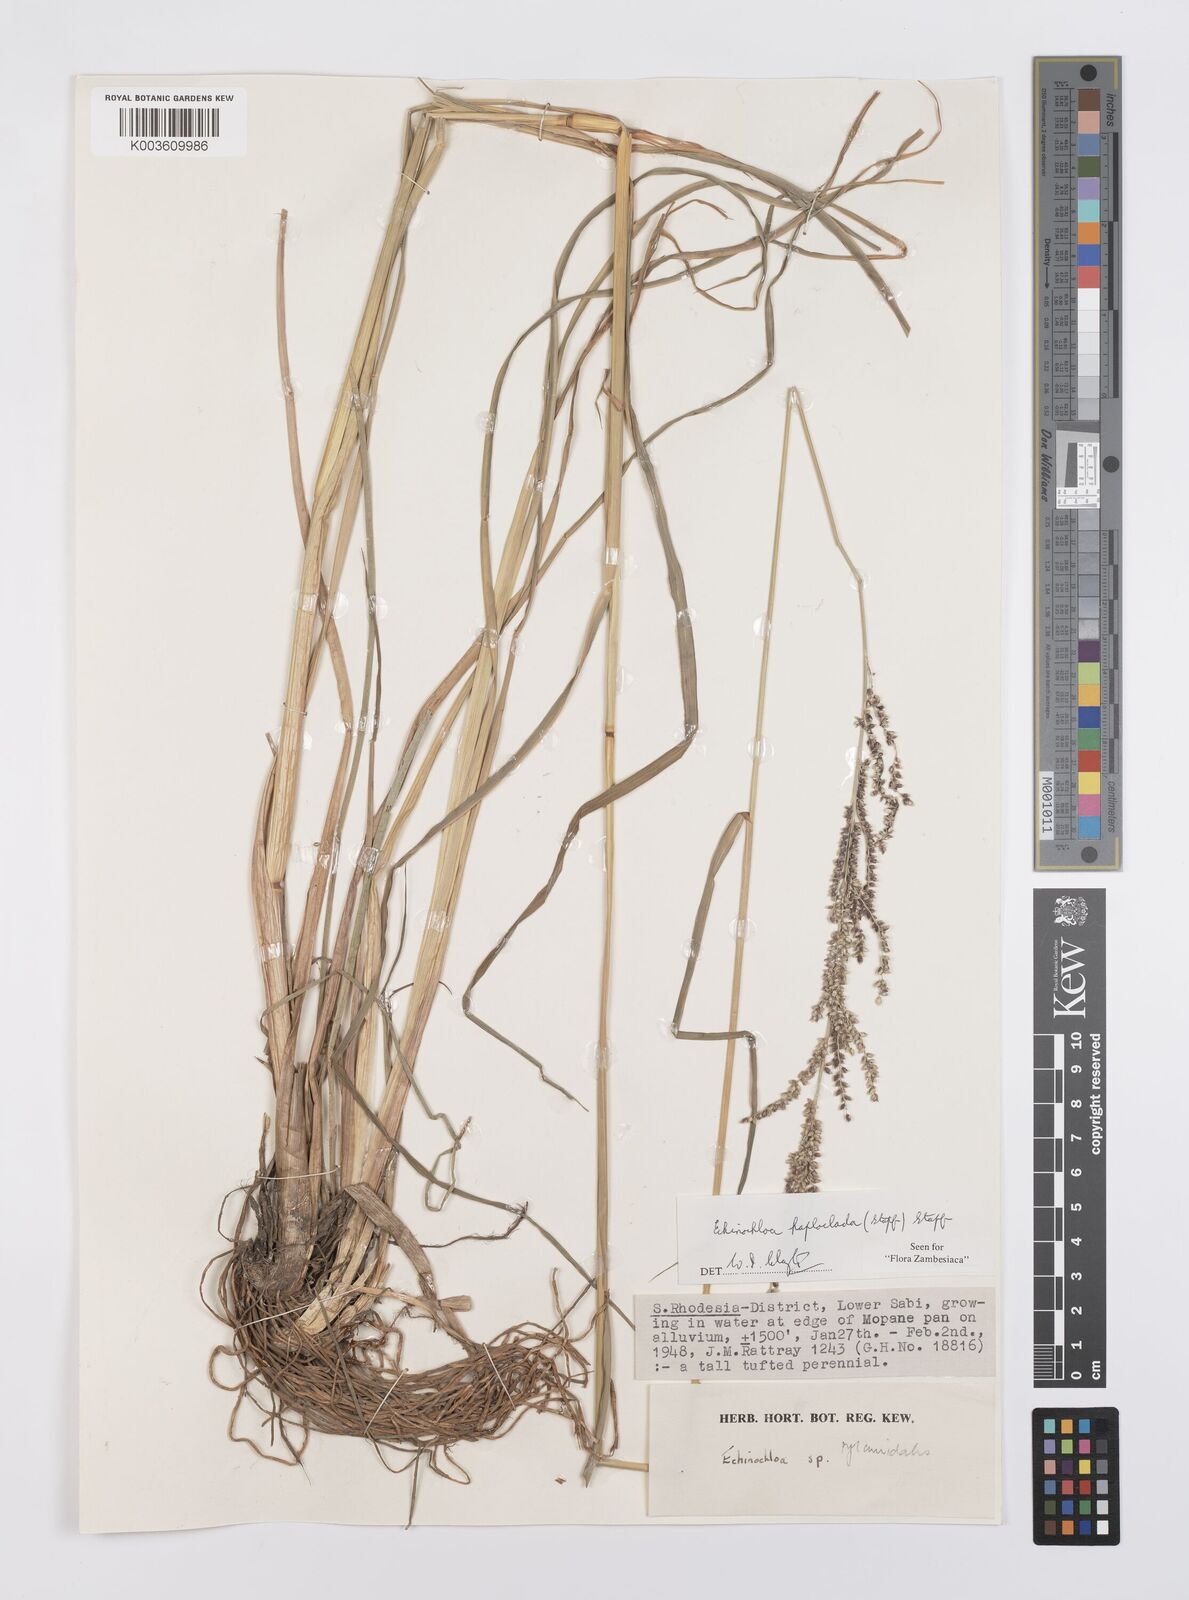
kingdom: Plantae
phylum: Tracheophyta
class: Liliopsida
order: Poales
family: Poaceae
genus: Echinochloa
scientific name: Echinochloa haploclada
